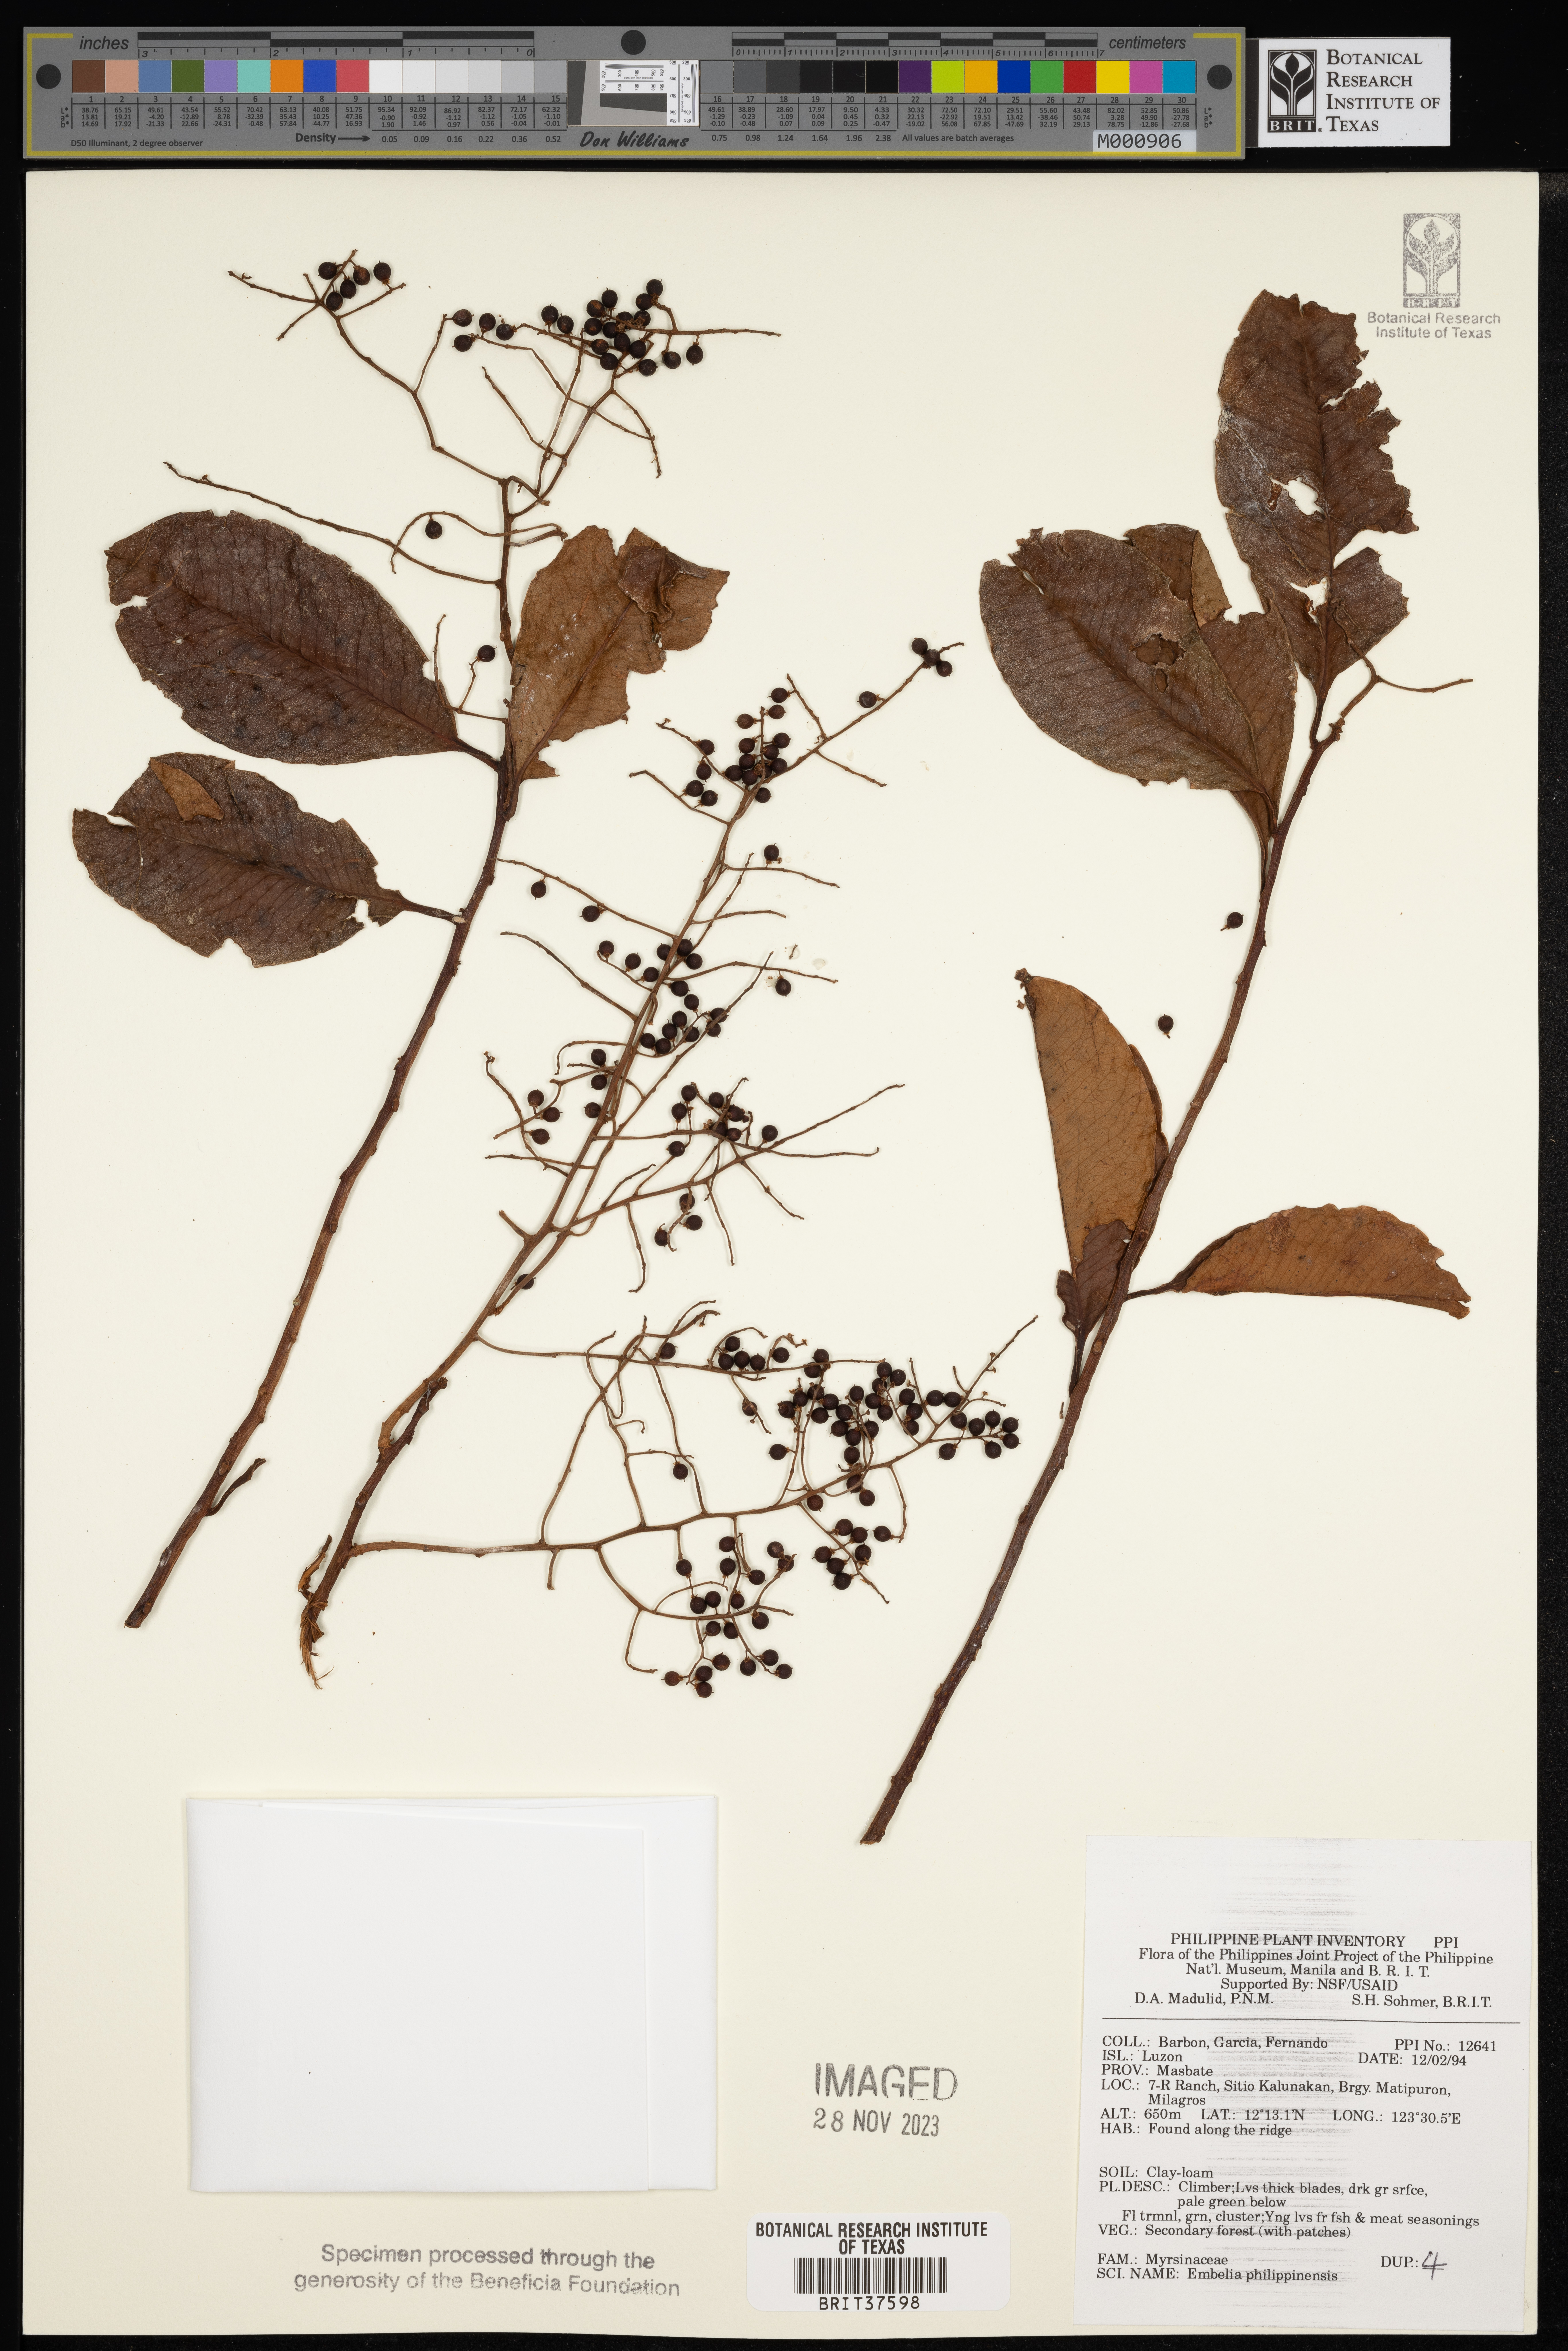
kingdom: Plantae
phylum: Tracheophyta
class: Magnoliopsida
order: Ericales
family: Primulaceae
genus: Embelia
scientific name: Embelia philippinensis
